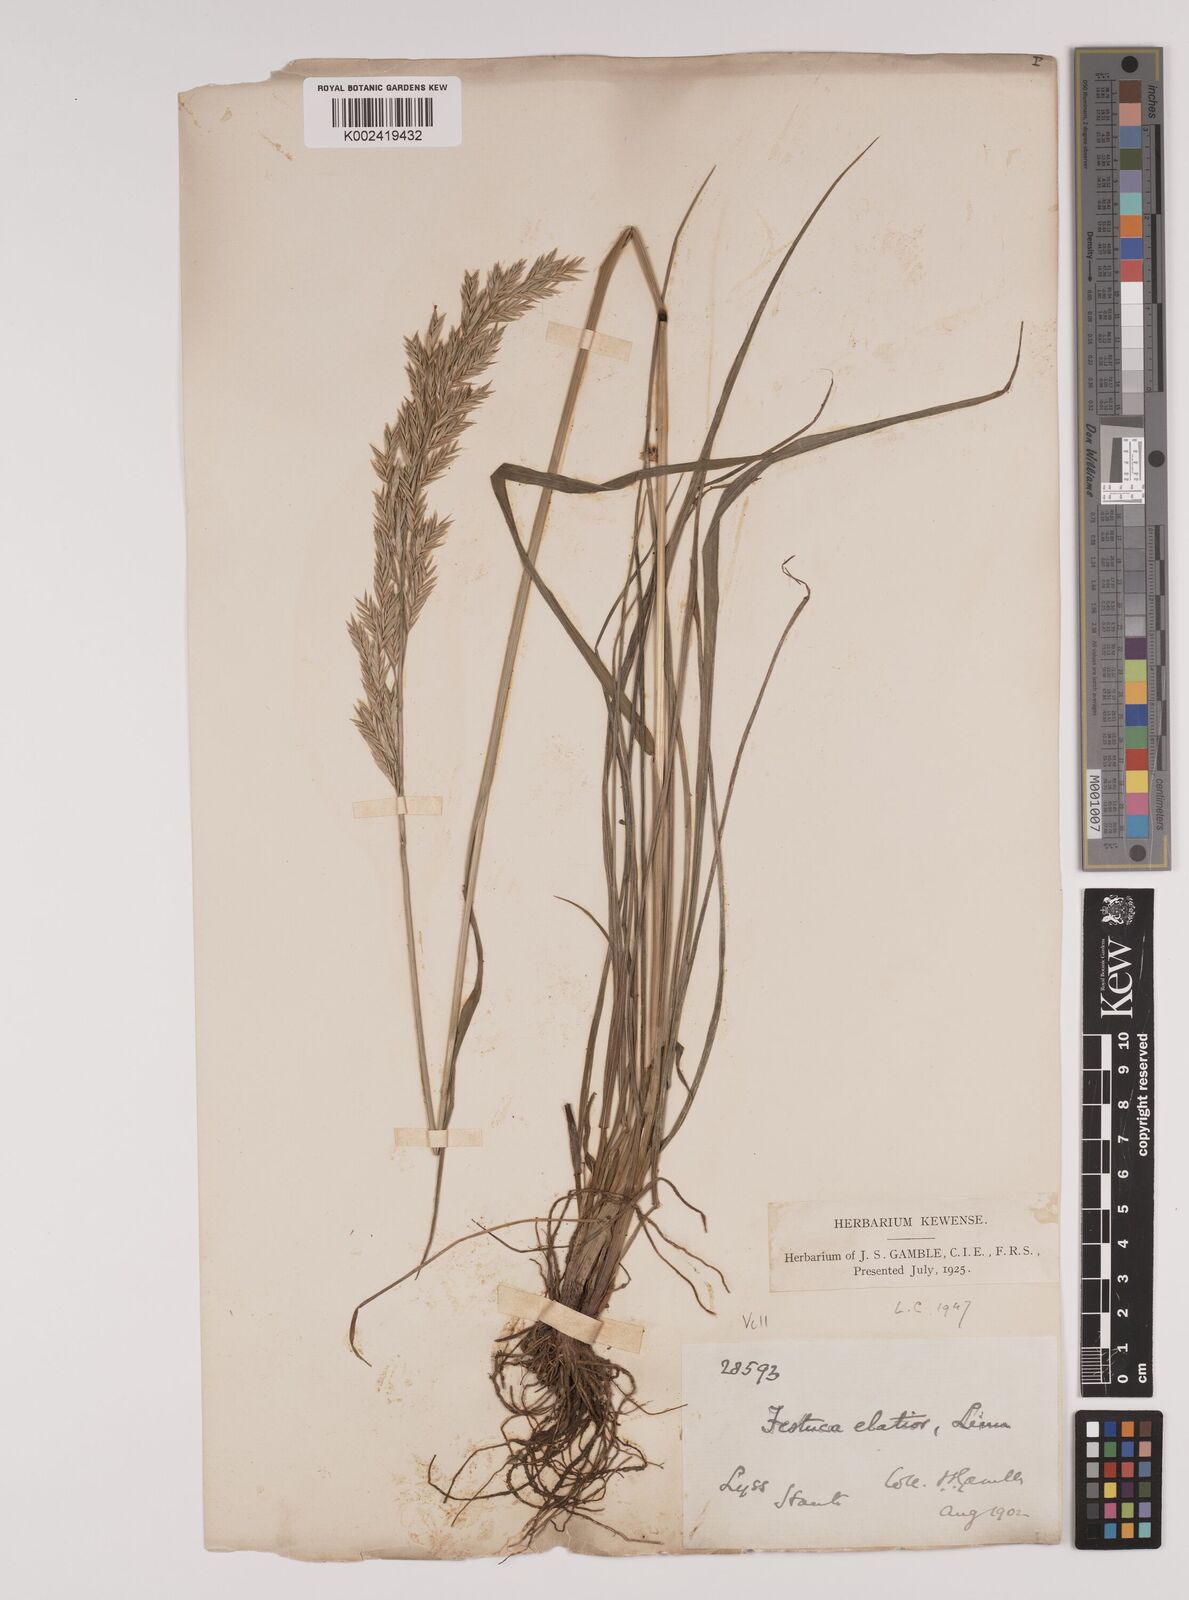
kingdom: Plantae
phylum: Tracheophyta
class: Liliopsida
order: Poales
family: Poaceae
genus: Lolium
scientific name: Lolium pratense
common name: Dover grass
